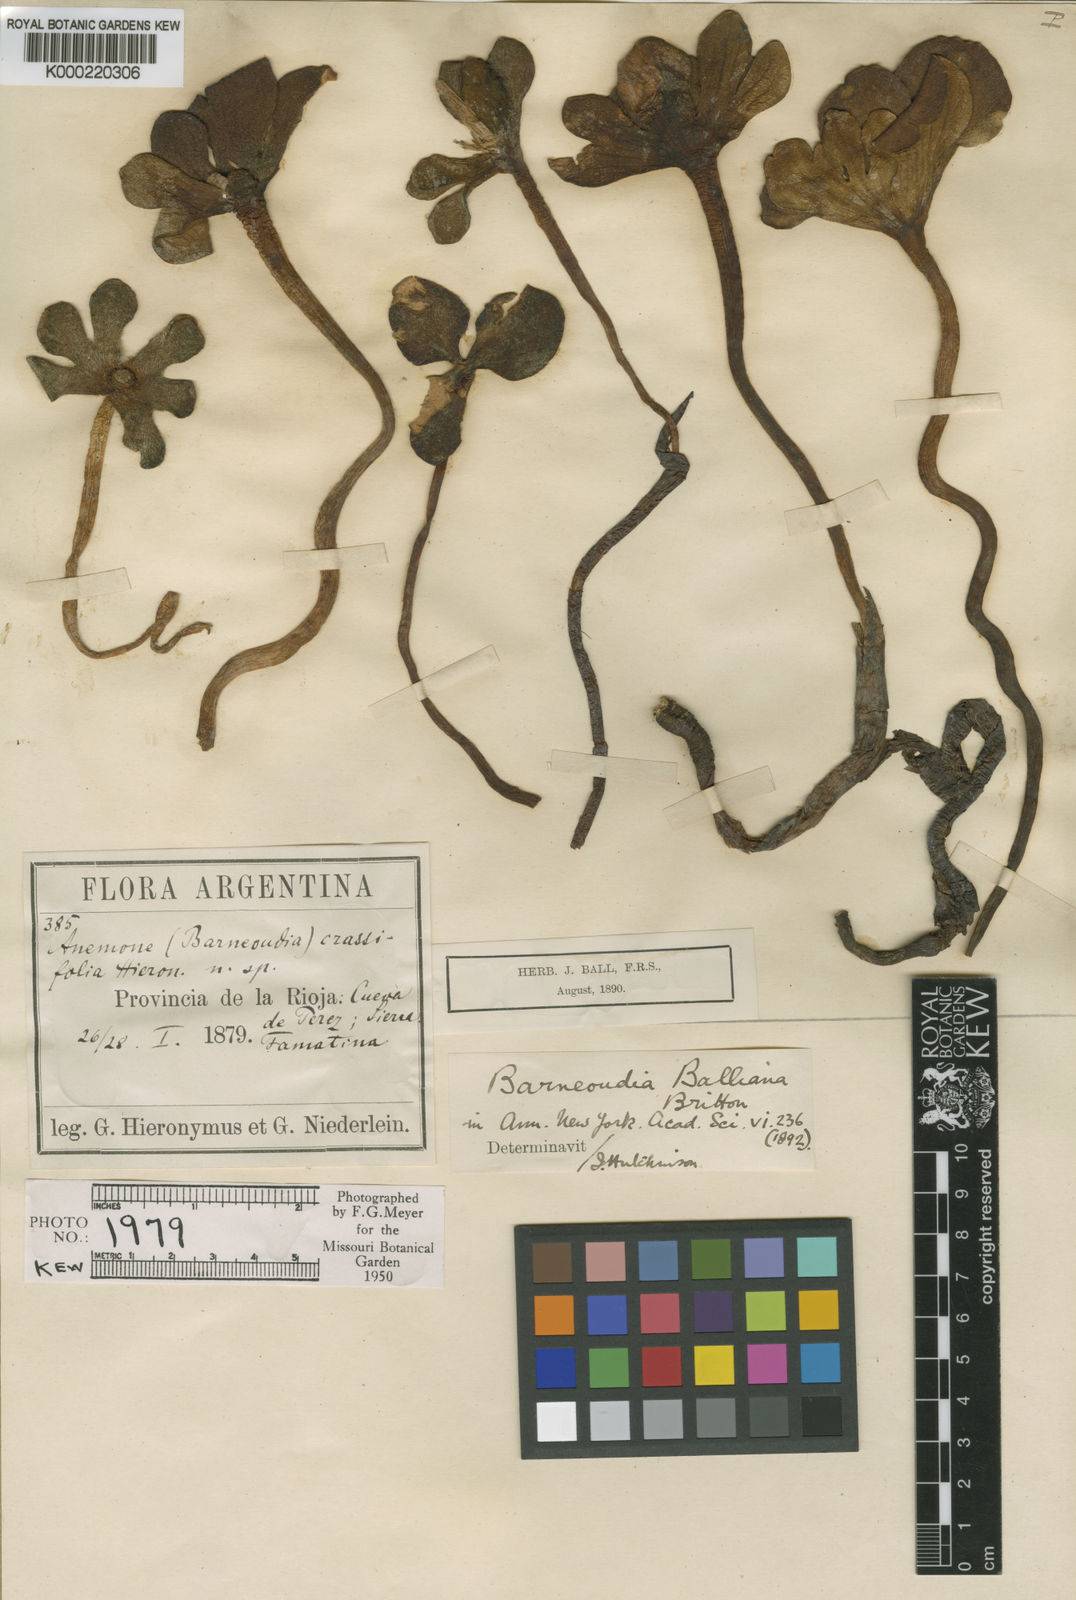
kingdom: Plantae
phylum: Tracheophyta
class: Magnoliopsida
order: Ranunculales
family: Ranunculaceae
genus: Knowltonia
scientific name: Knowltonia balliana
